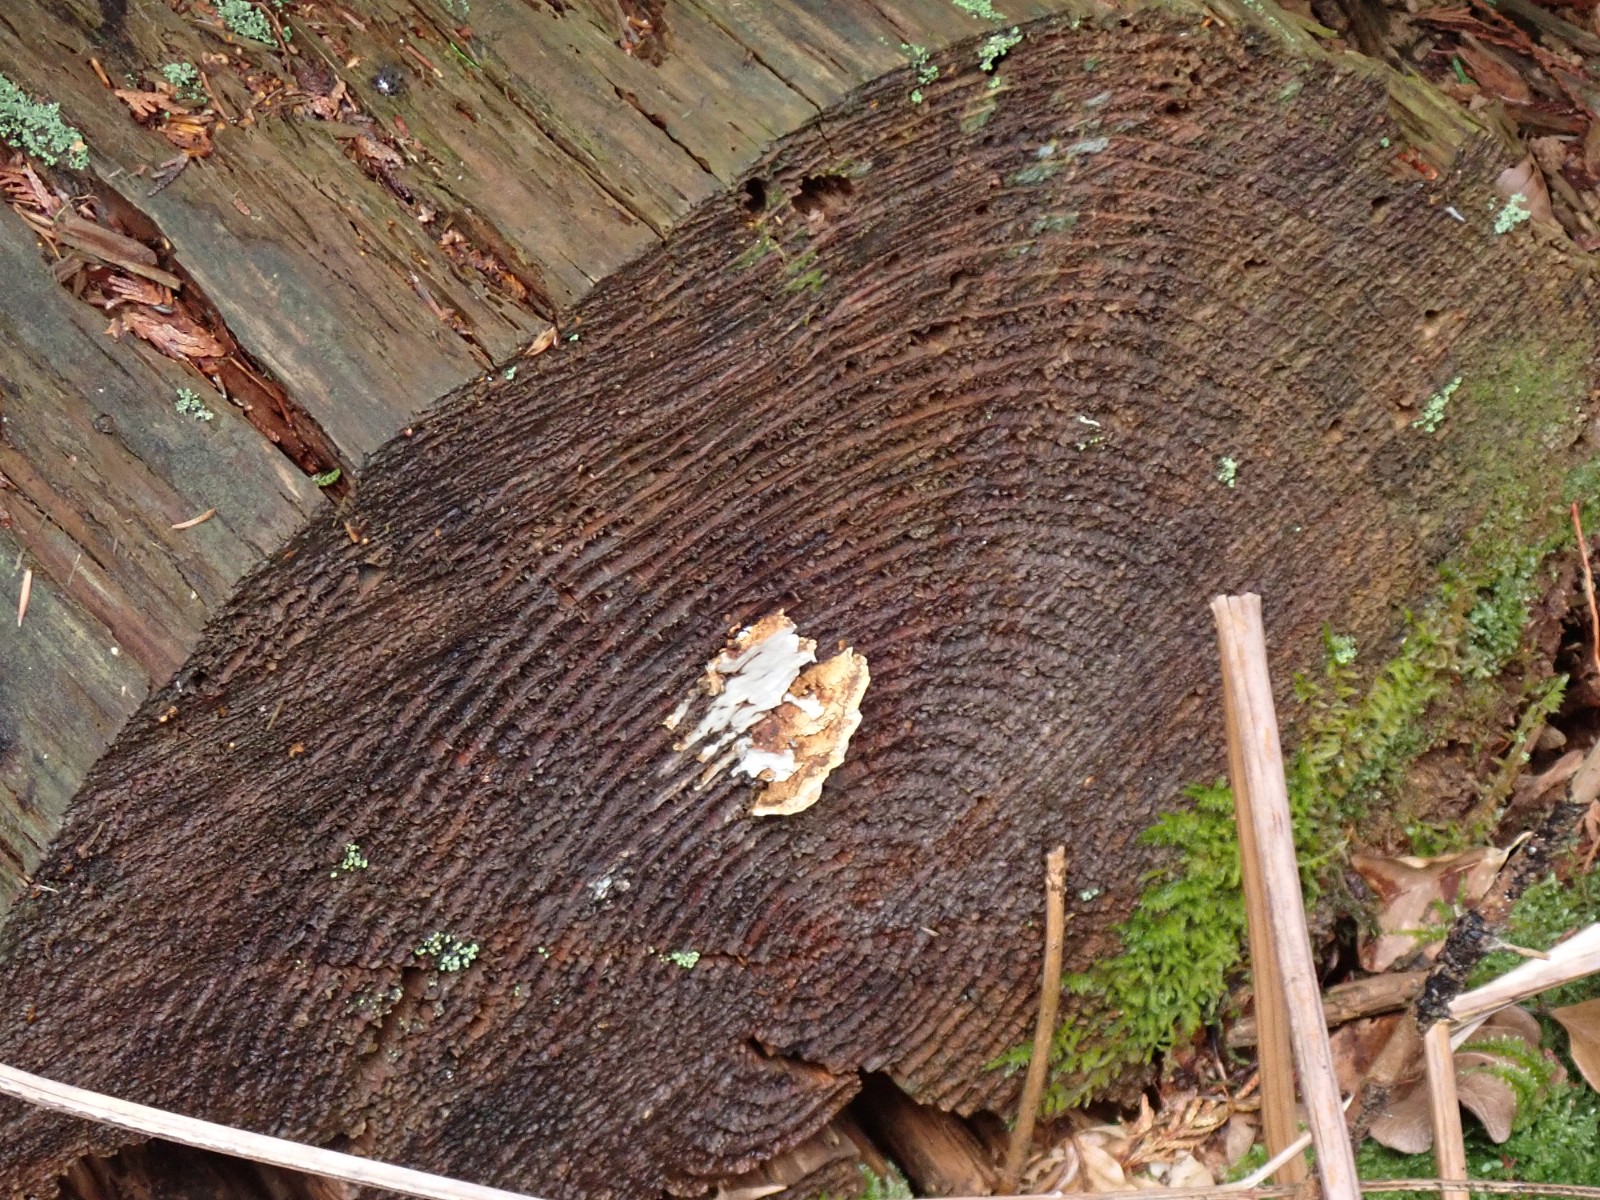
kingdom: Fungi
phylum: Basidiomycota
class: Agaricomycetes
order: Polyporales
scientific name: Polyporales
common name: poresvampordenen
